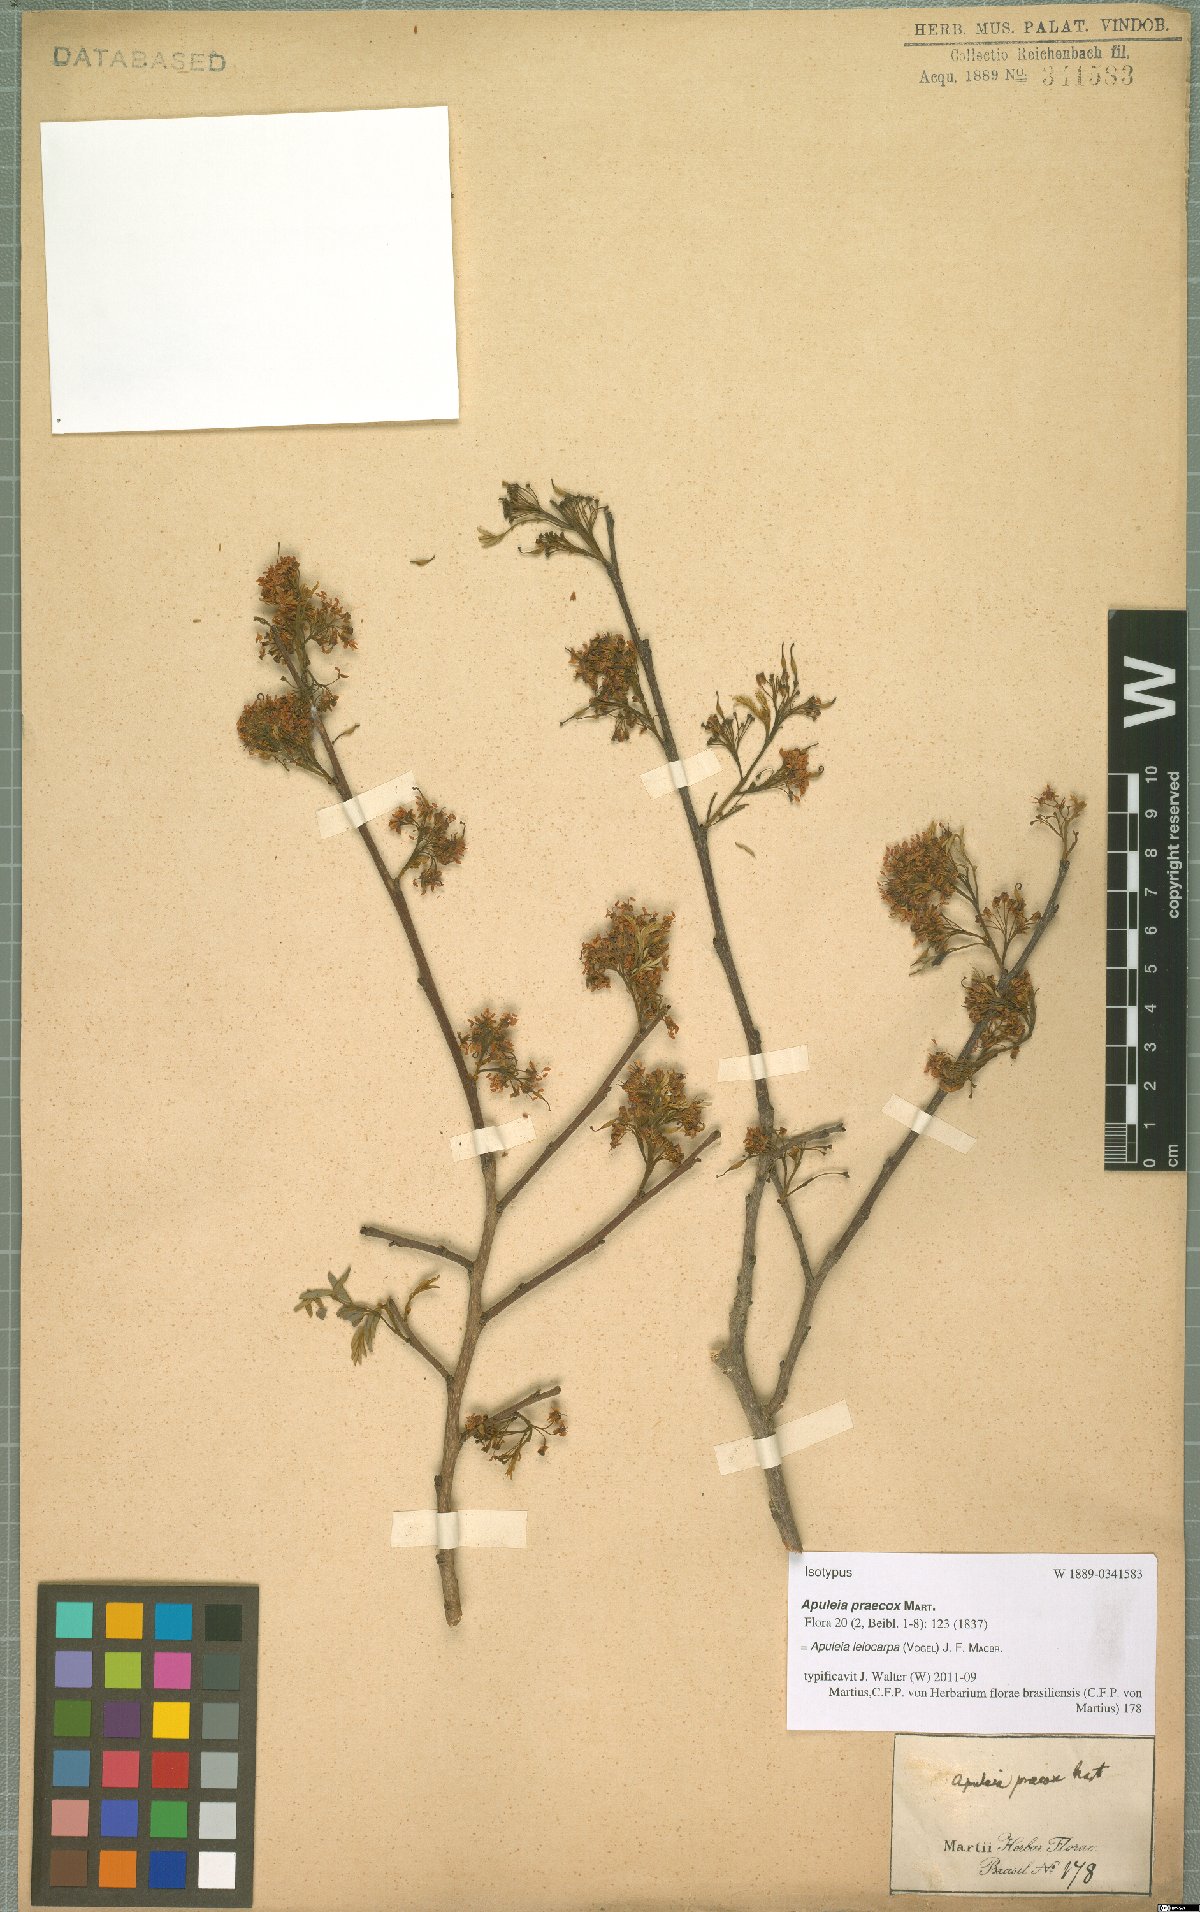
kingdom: Plantae
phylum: Tracheophyta
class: Magnoliopsida
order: Fabales
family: Fabaceae
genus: Apuleia
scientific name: Apuleia leiocarpa
